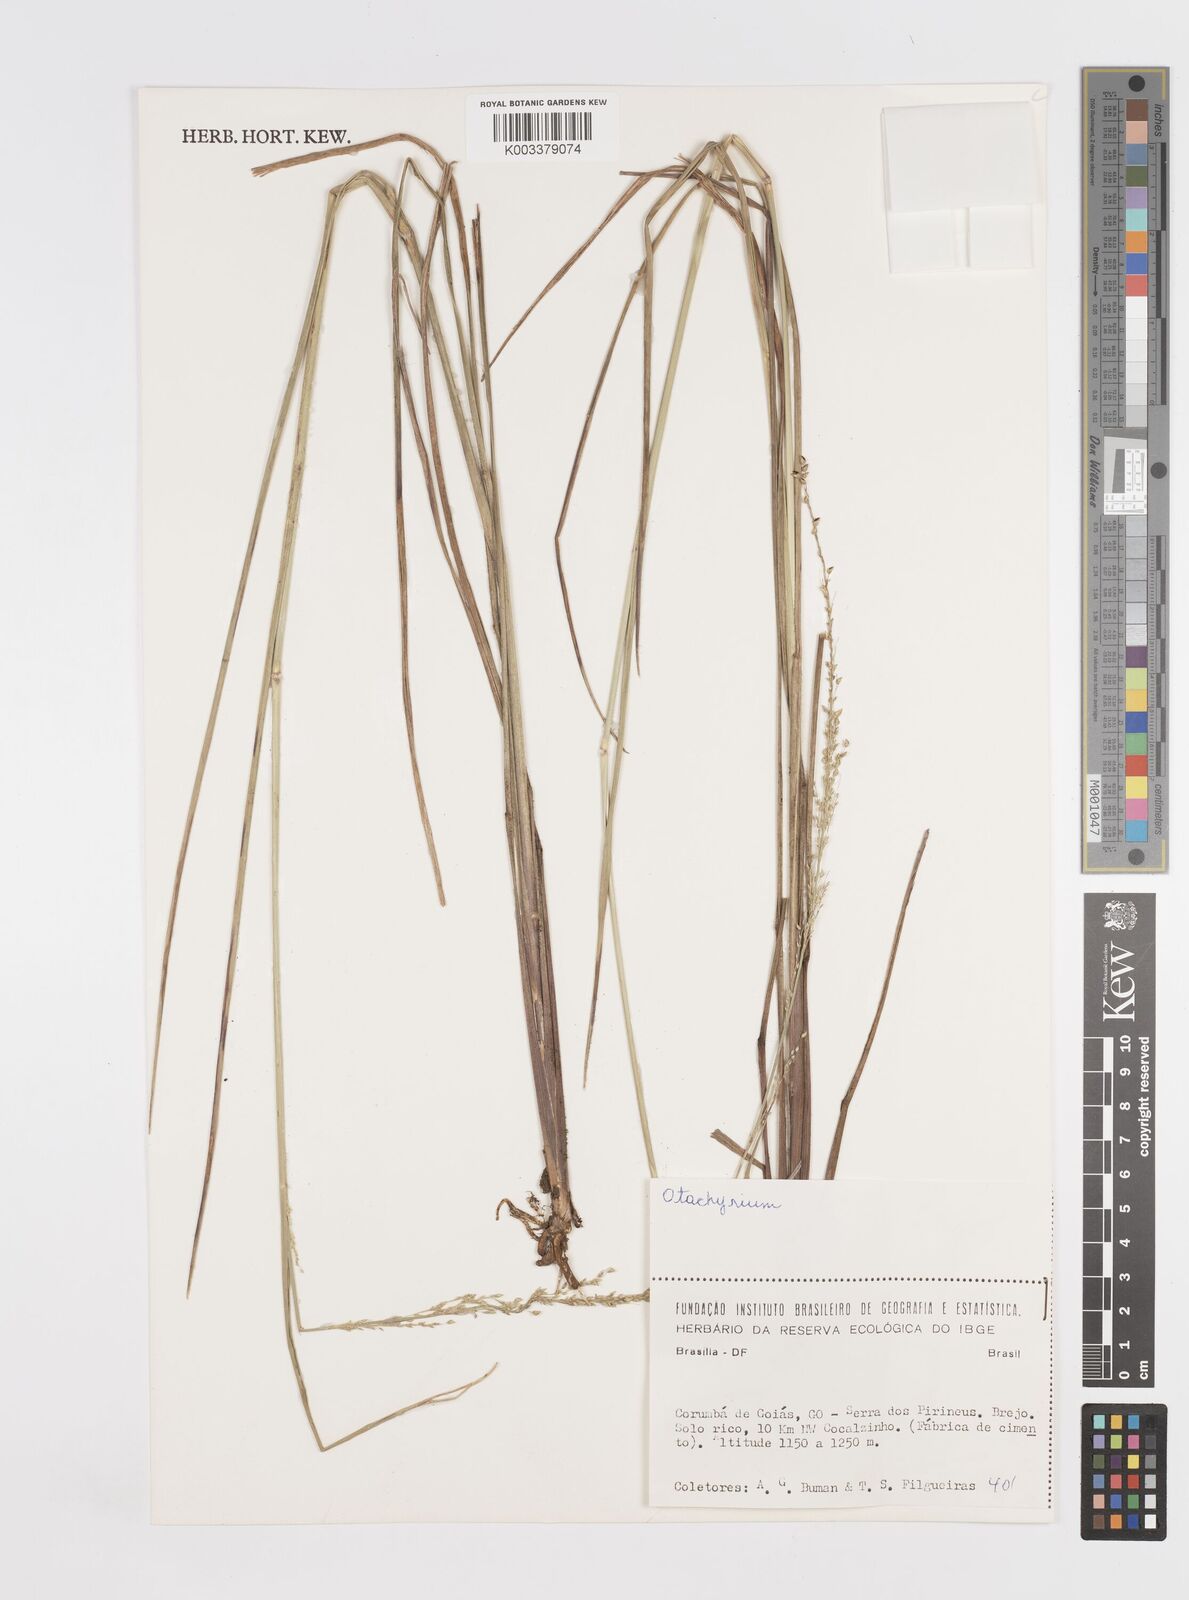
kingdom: Plantae
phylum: Tracheophyta
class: Liliopsida
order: Poales
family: Poaceae
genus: Otachyrium
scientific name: Otachyrium versicolor
